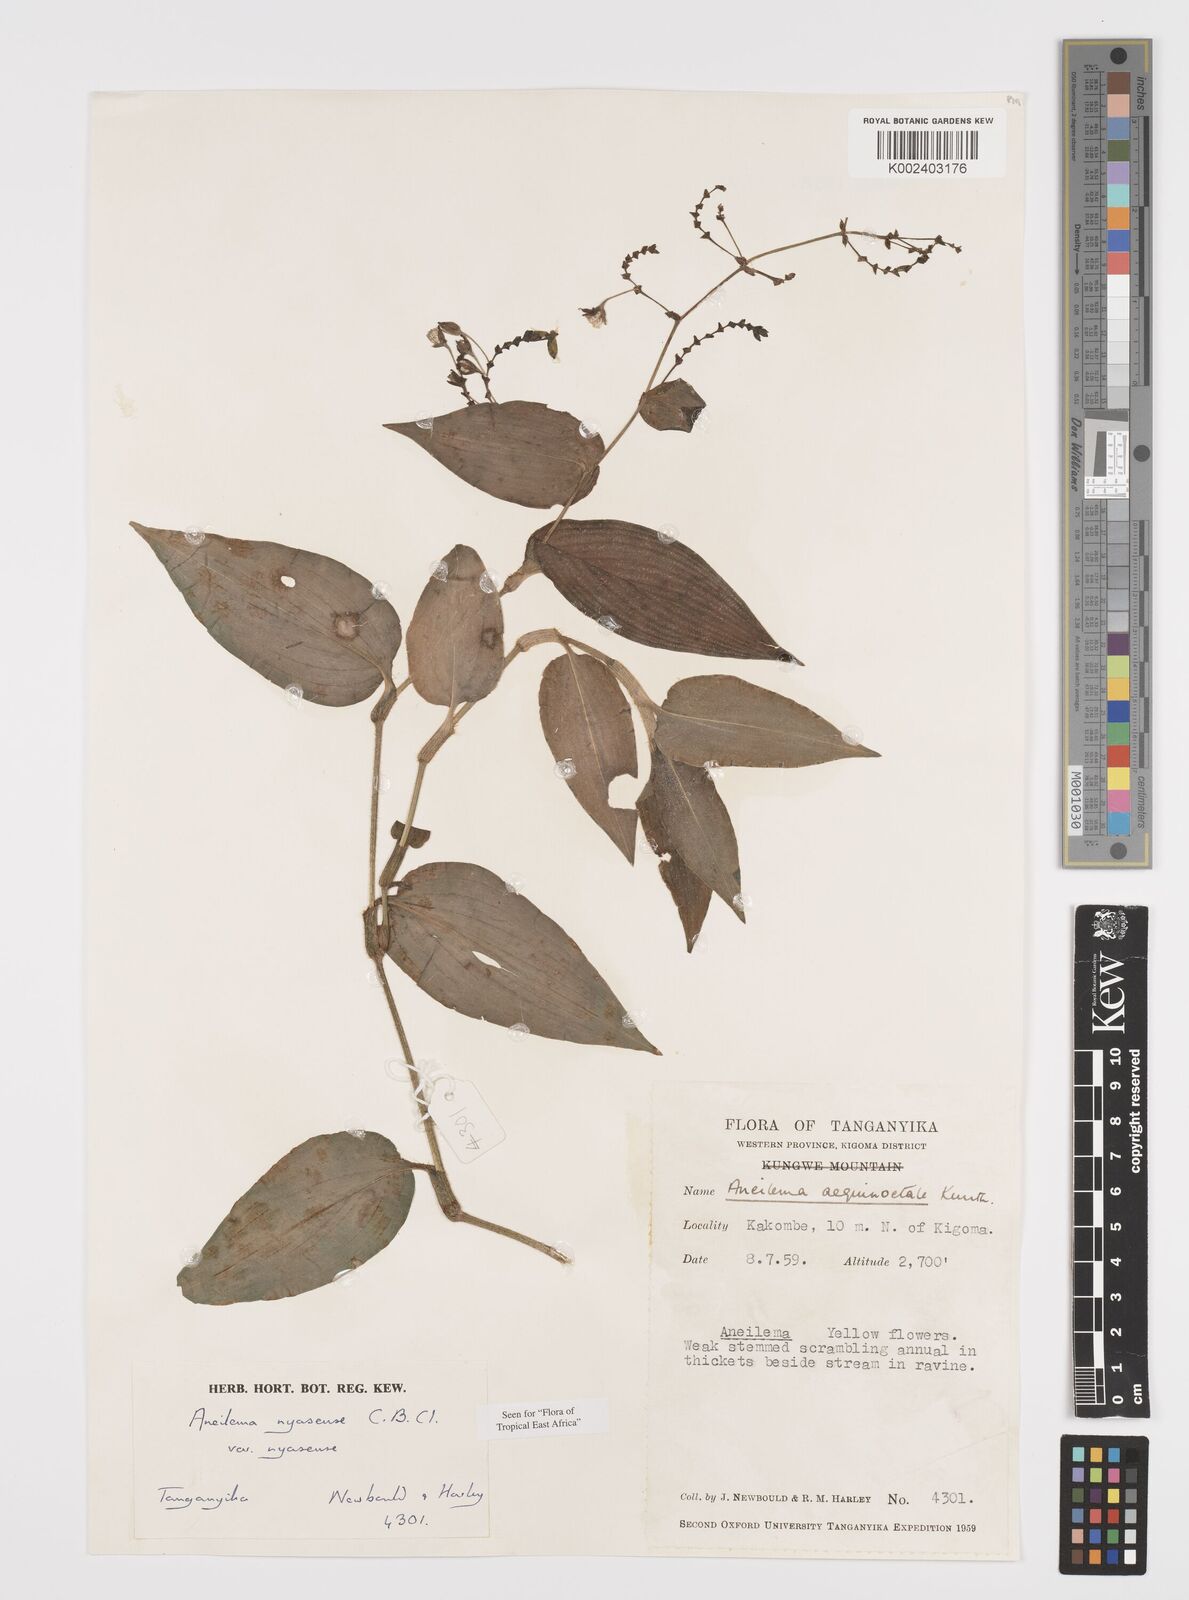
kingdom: Plantae
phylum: Tracheophyta
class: Liliopsida
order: Commelinales
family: Commelinaceae
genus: Aneilema
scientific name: Aneilema nyasense
